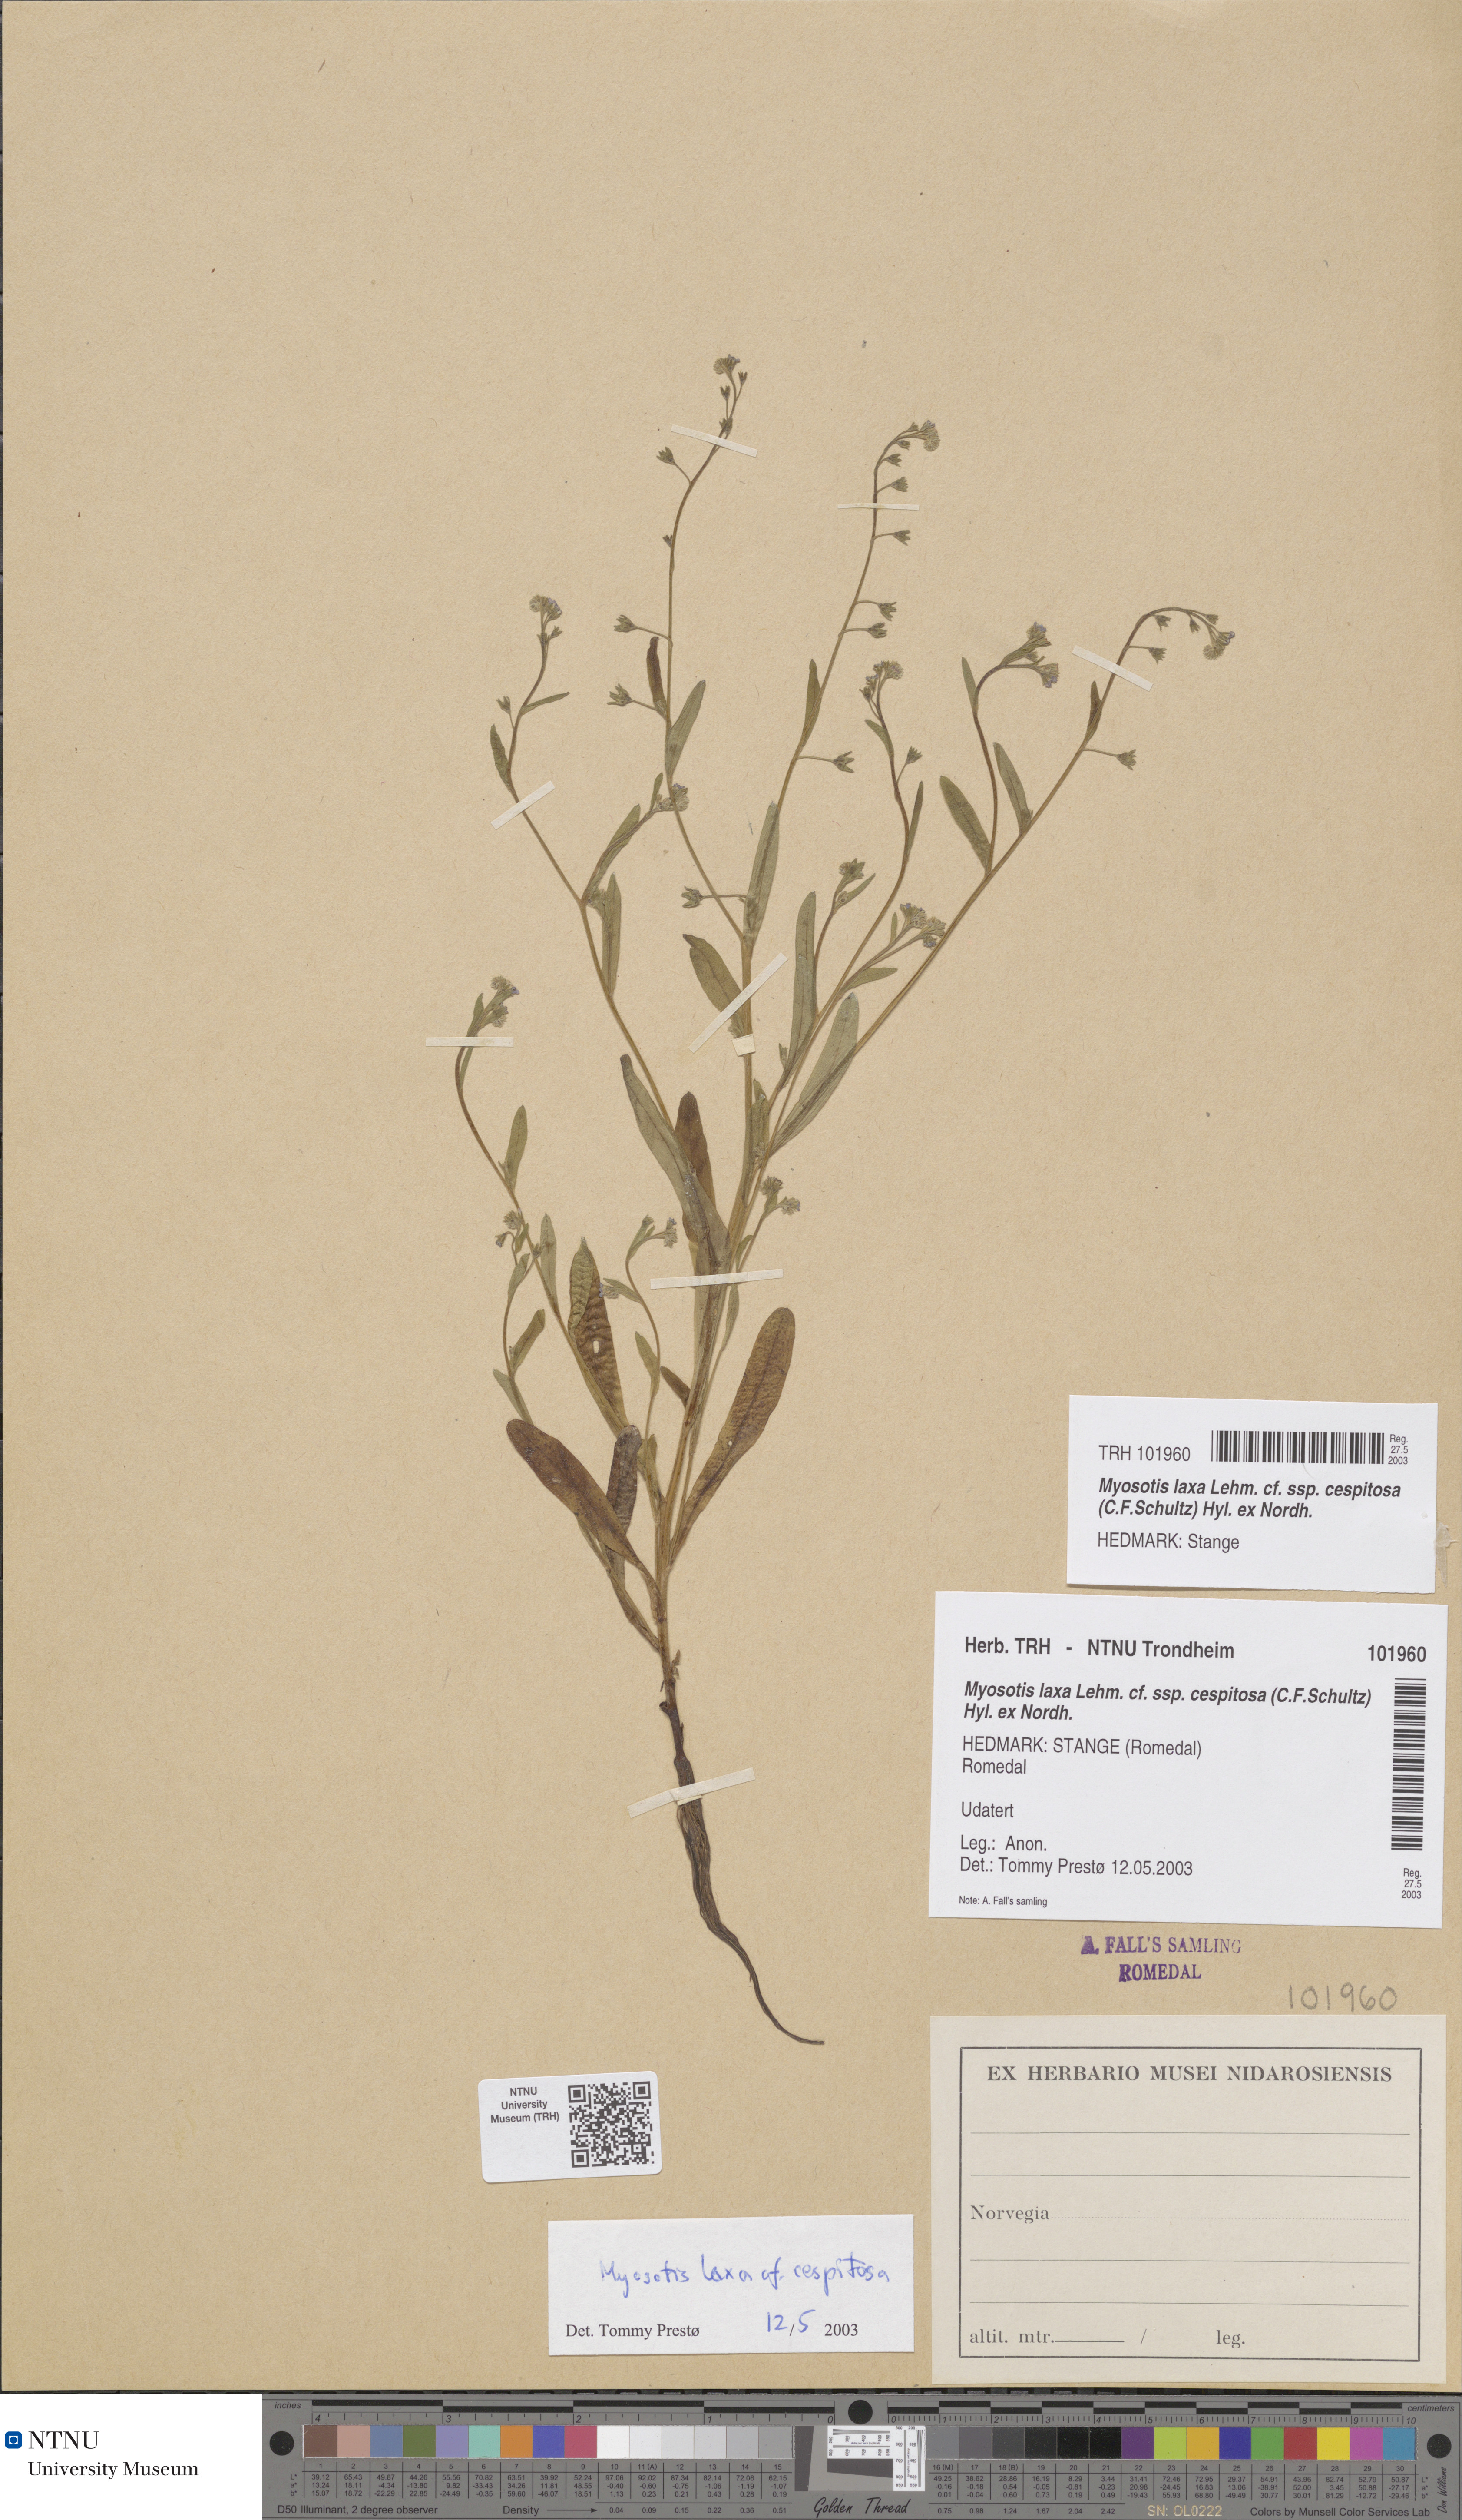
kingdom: Plantae
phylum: Tracheophyta
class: Magnoliopsida
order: Boraginales
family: Boraginaceae
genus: Myosotis
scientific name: Myosotis laxa
